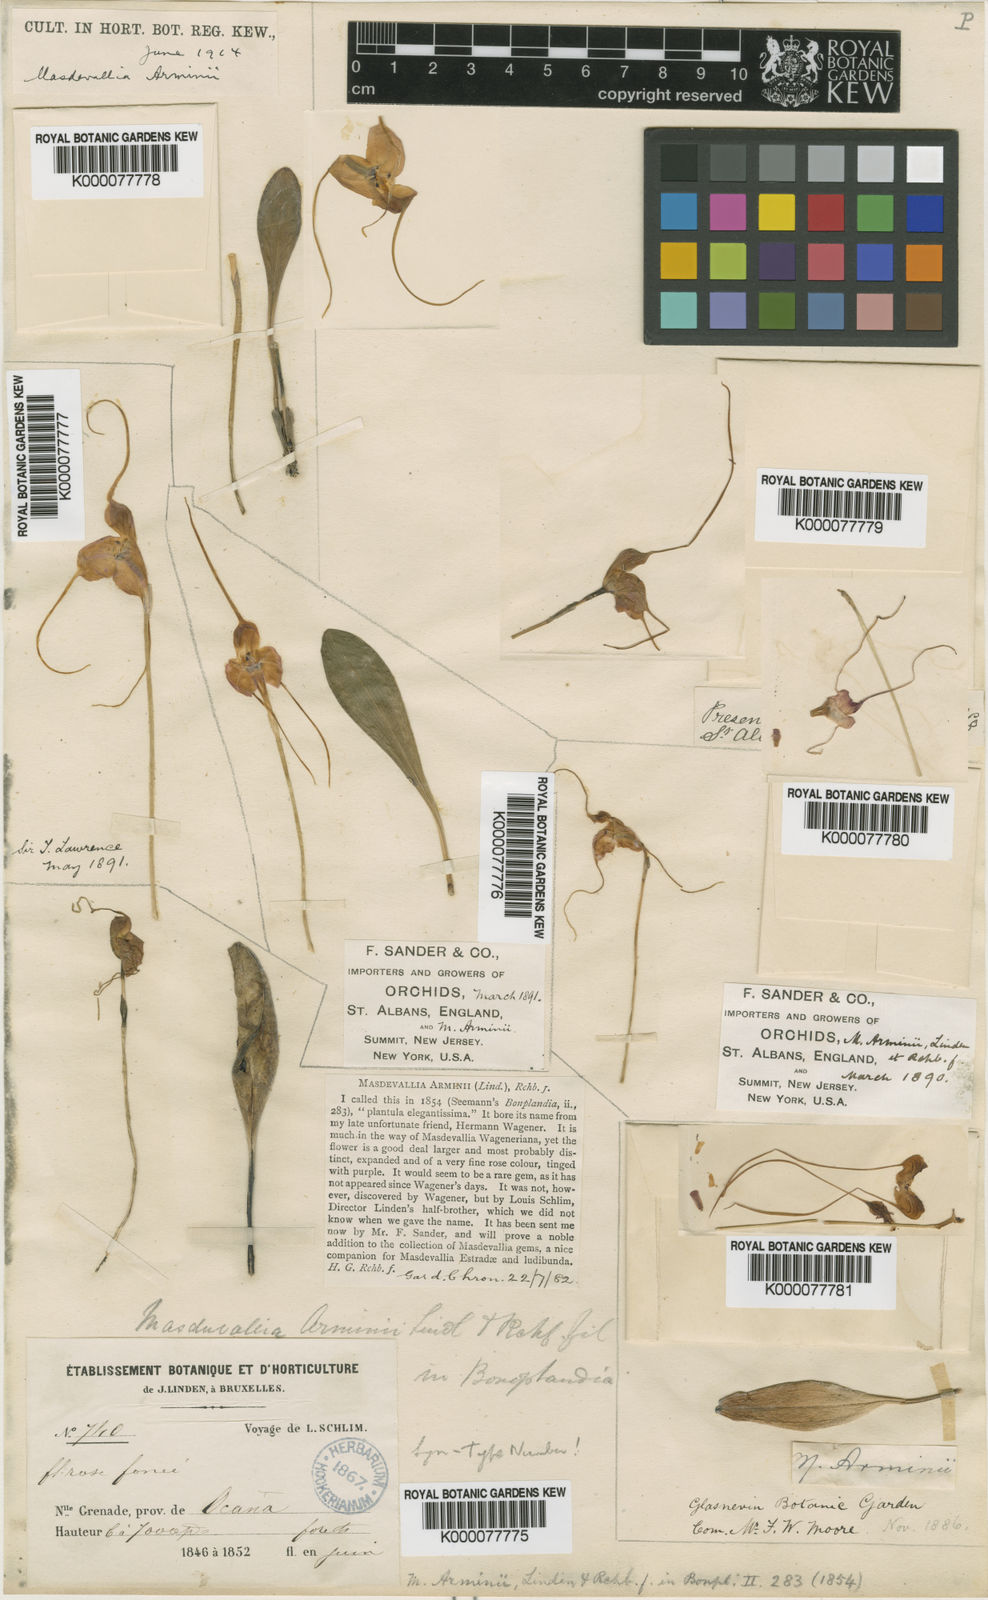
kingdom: Plantae
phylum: Tracheophyta
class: Liliopsida
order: Asparagales
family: Orchidaceae
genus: Masdevallia
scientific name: Masdevallia arminii
